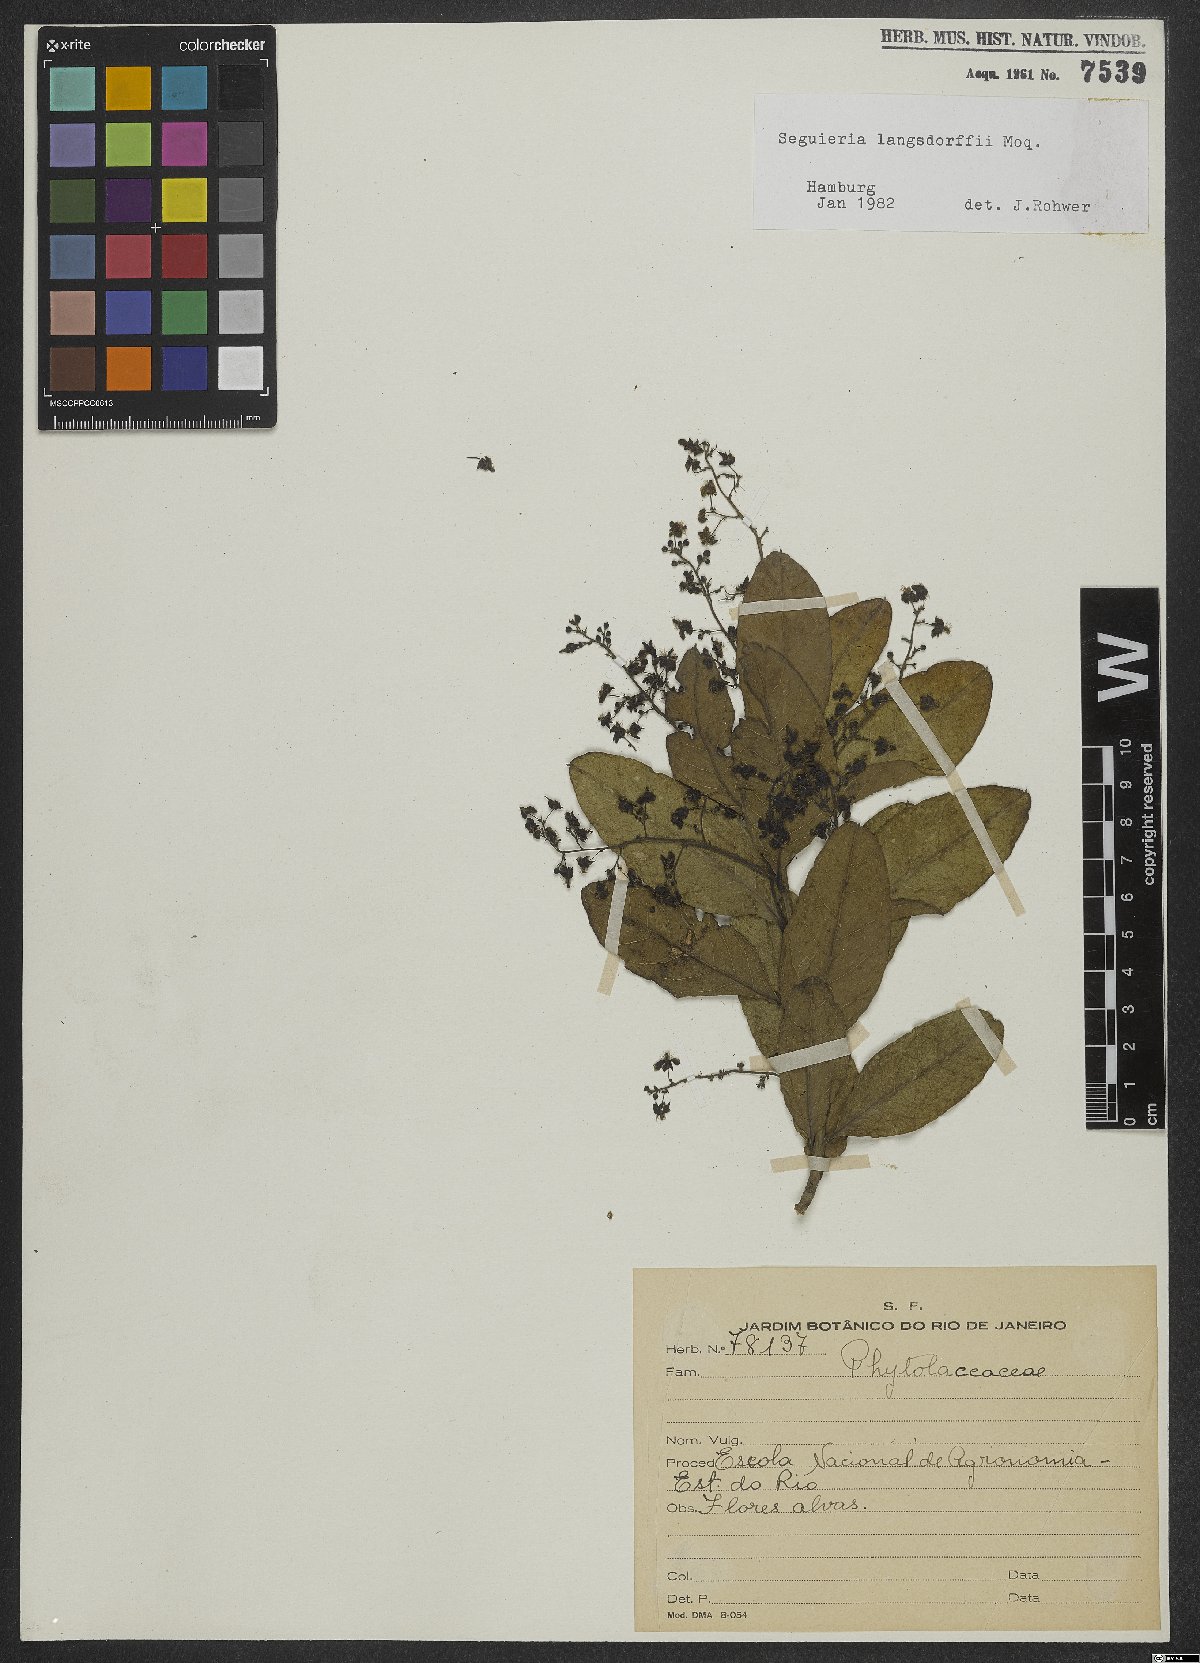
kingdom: Plantae
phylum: Tracheophyta
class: Magnoliopsida
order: Caryophyllales
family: Phytolaccaceae
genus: Seguieria
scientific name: Seguieria langsdorffii
